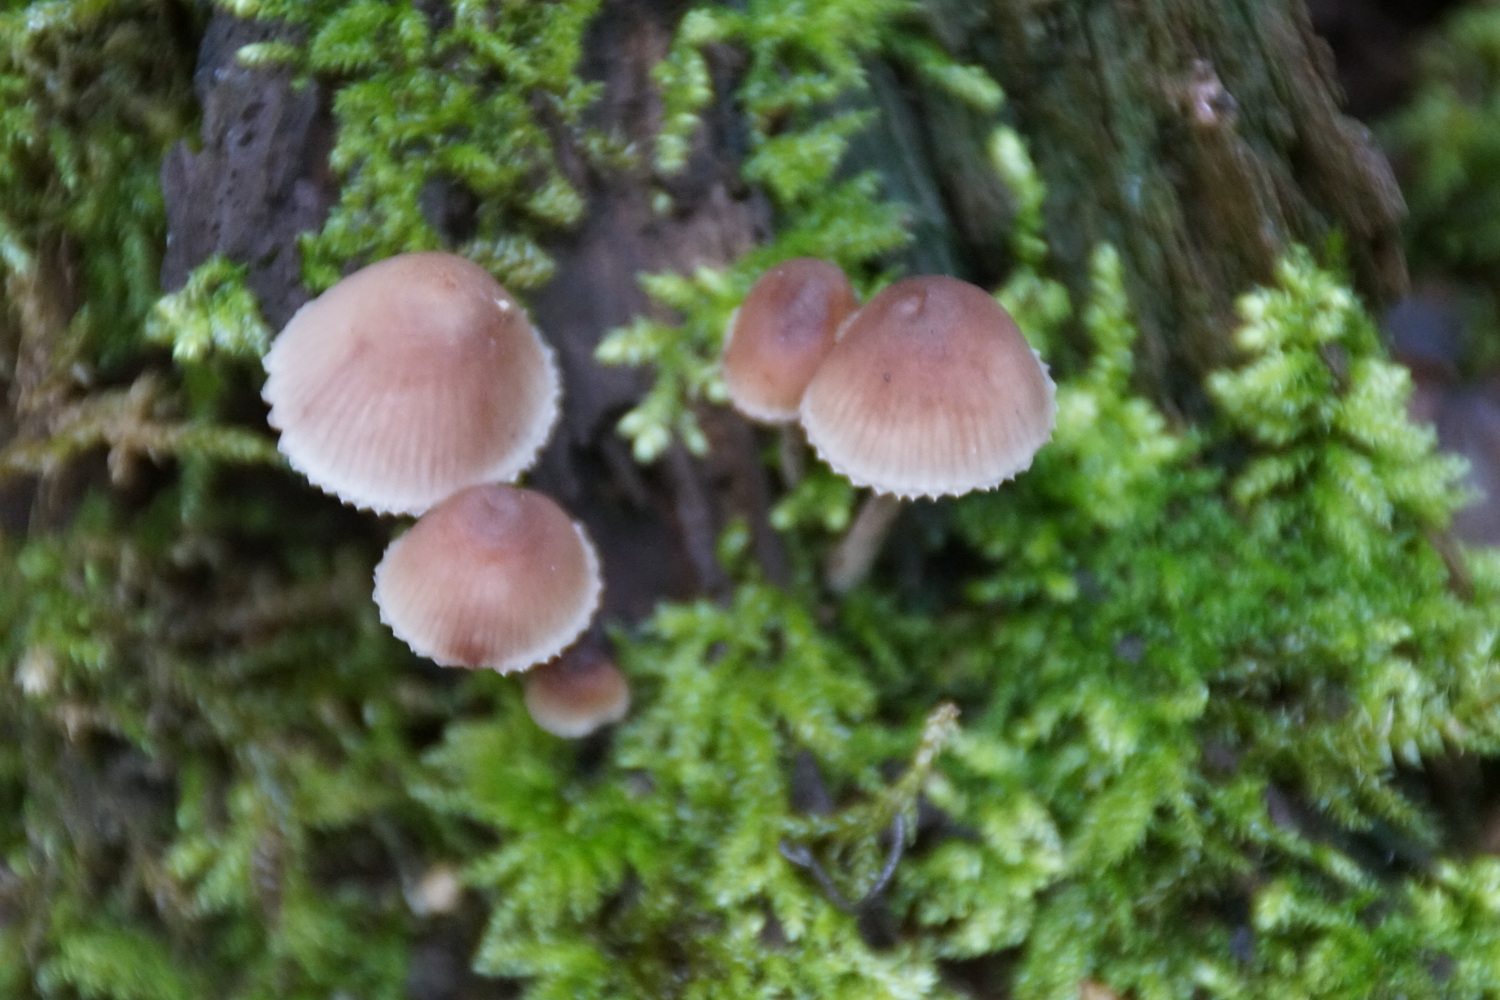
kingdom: Fungi
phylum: Basidiomycota
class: Agaricomycetes
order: Agaricales
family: Mycenaceae
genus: Mycena
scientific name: Mycena haematopus
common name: blødende huesvamp
